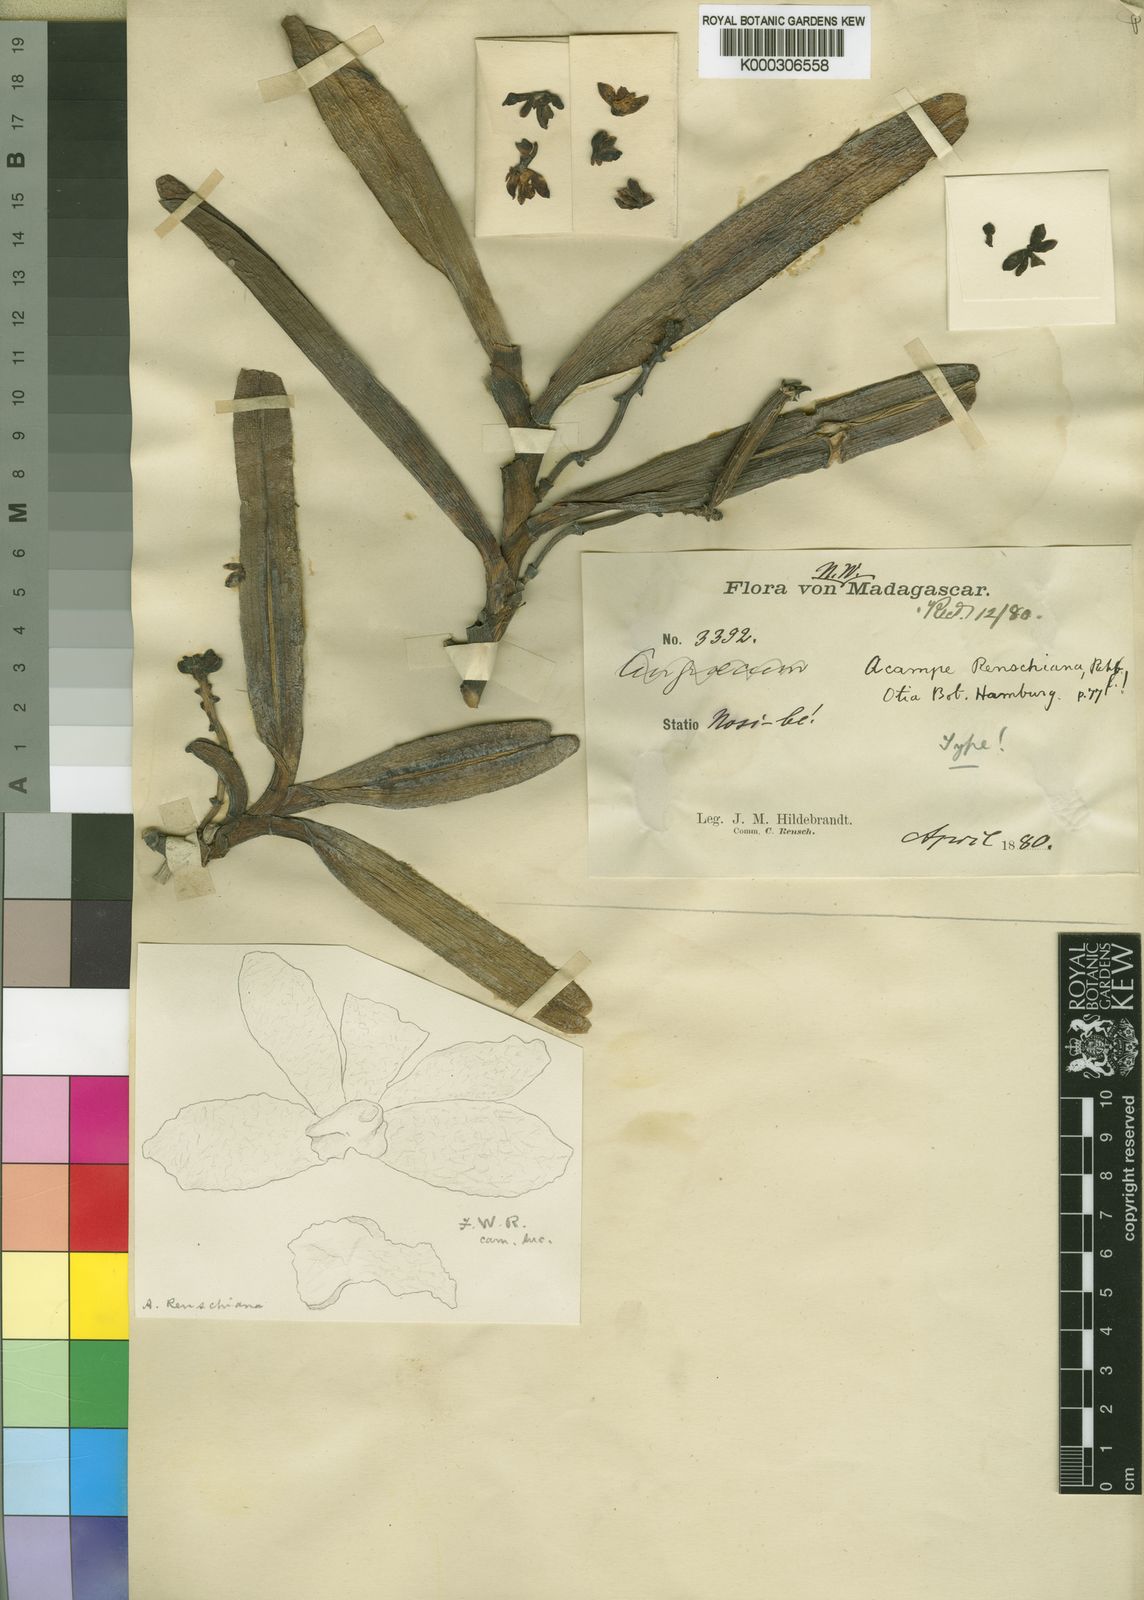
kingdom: Plantae
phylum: Tracheophyta
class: Liliopsida
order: Asparagales
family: Orchidaceae
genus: Acampe
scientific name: Acampe pachyglossa
